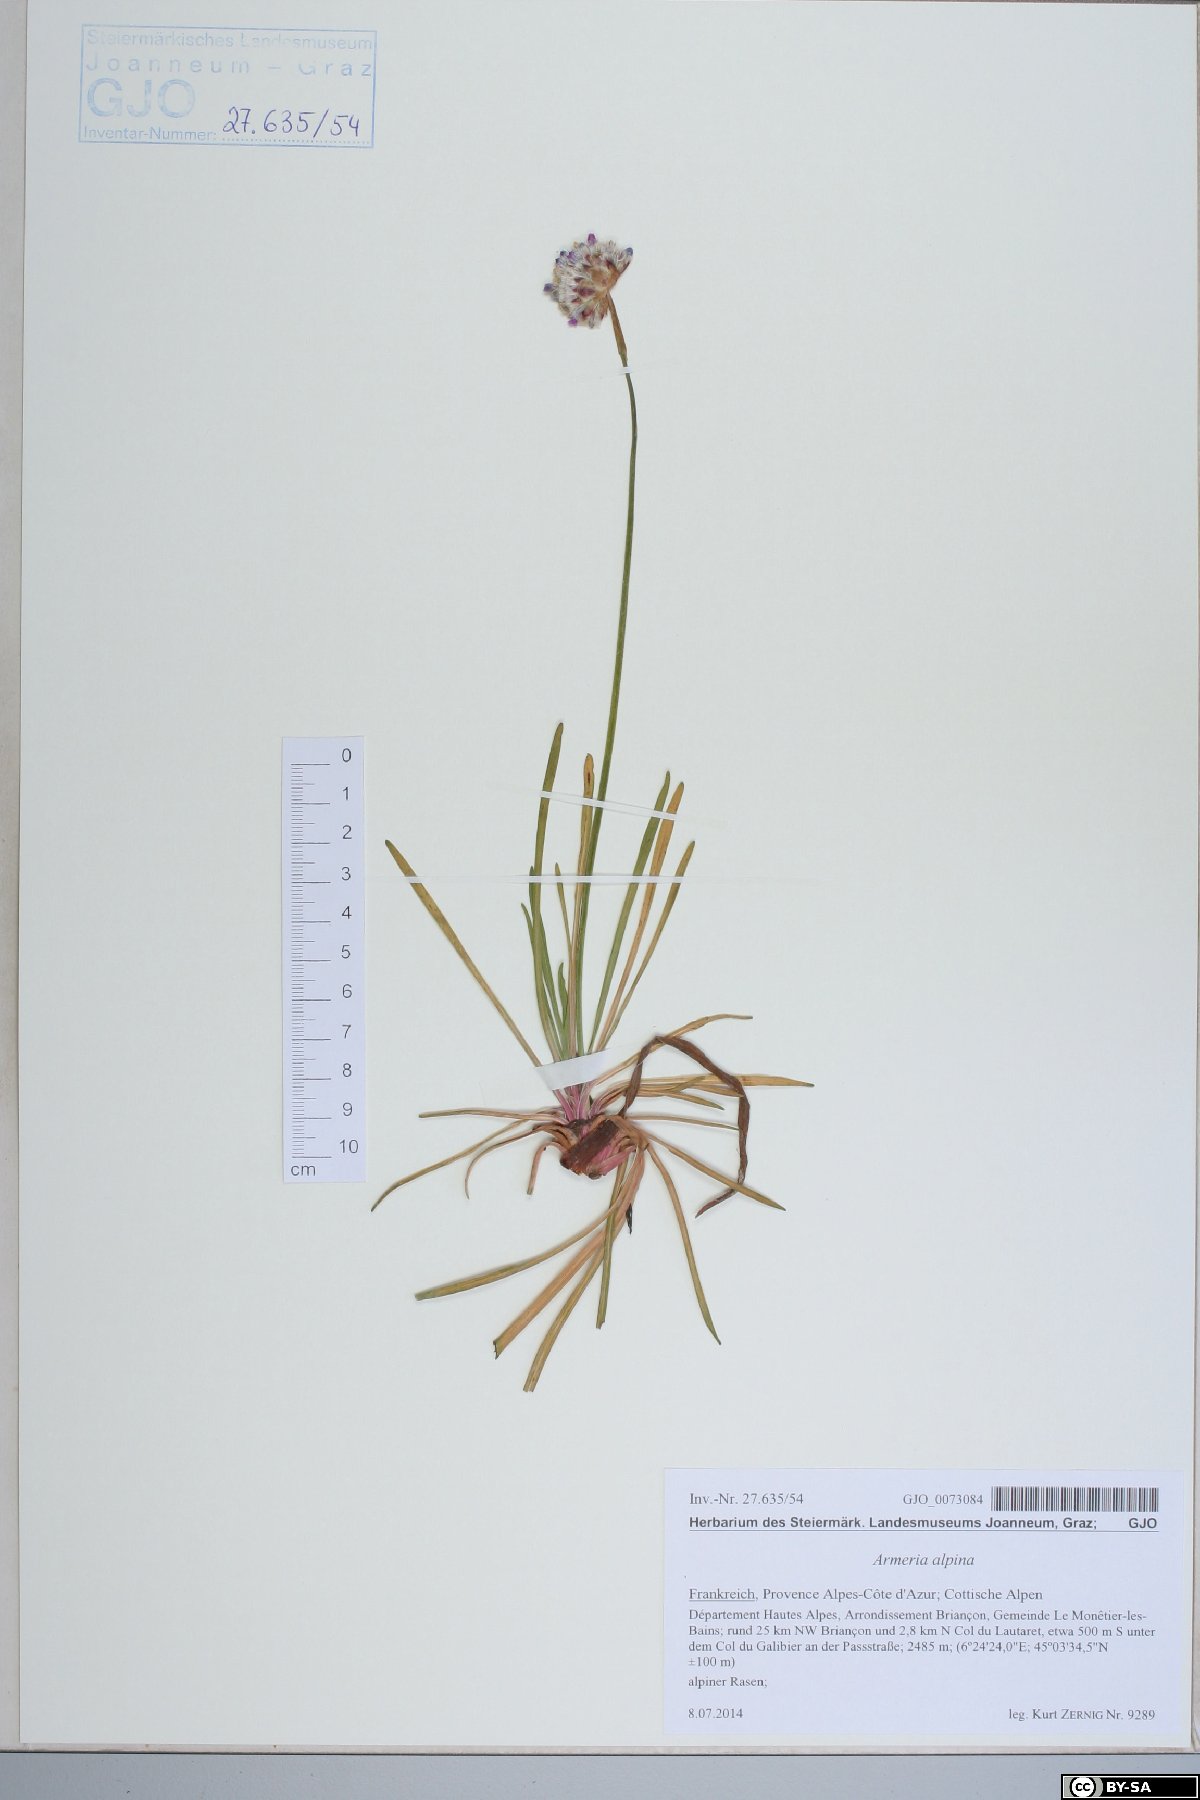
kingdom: Plantae
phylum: Tracheophyta
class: Magnoliopsida
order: Caryophyllales
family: Plumbaginaceae
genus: Armeria
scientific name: Armeria alpina
